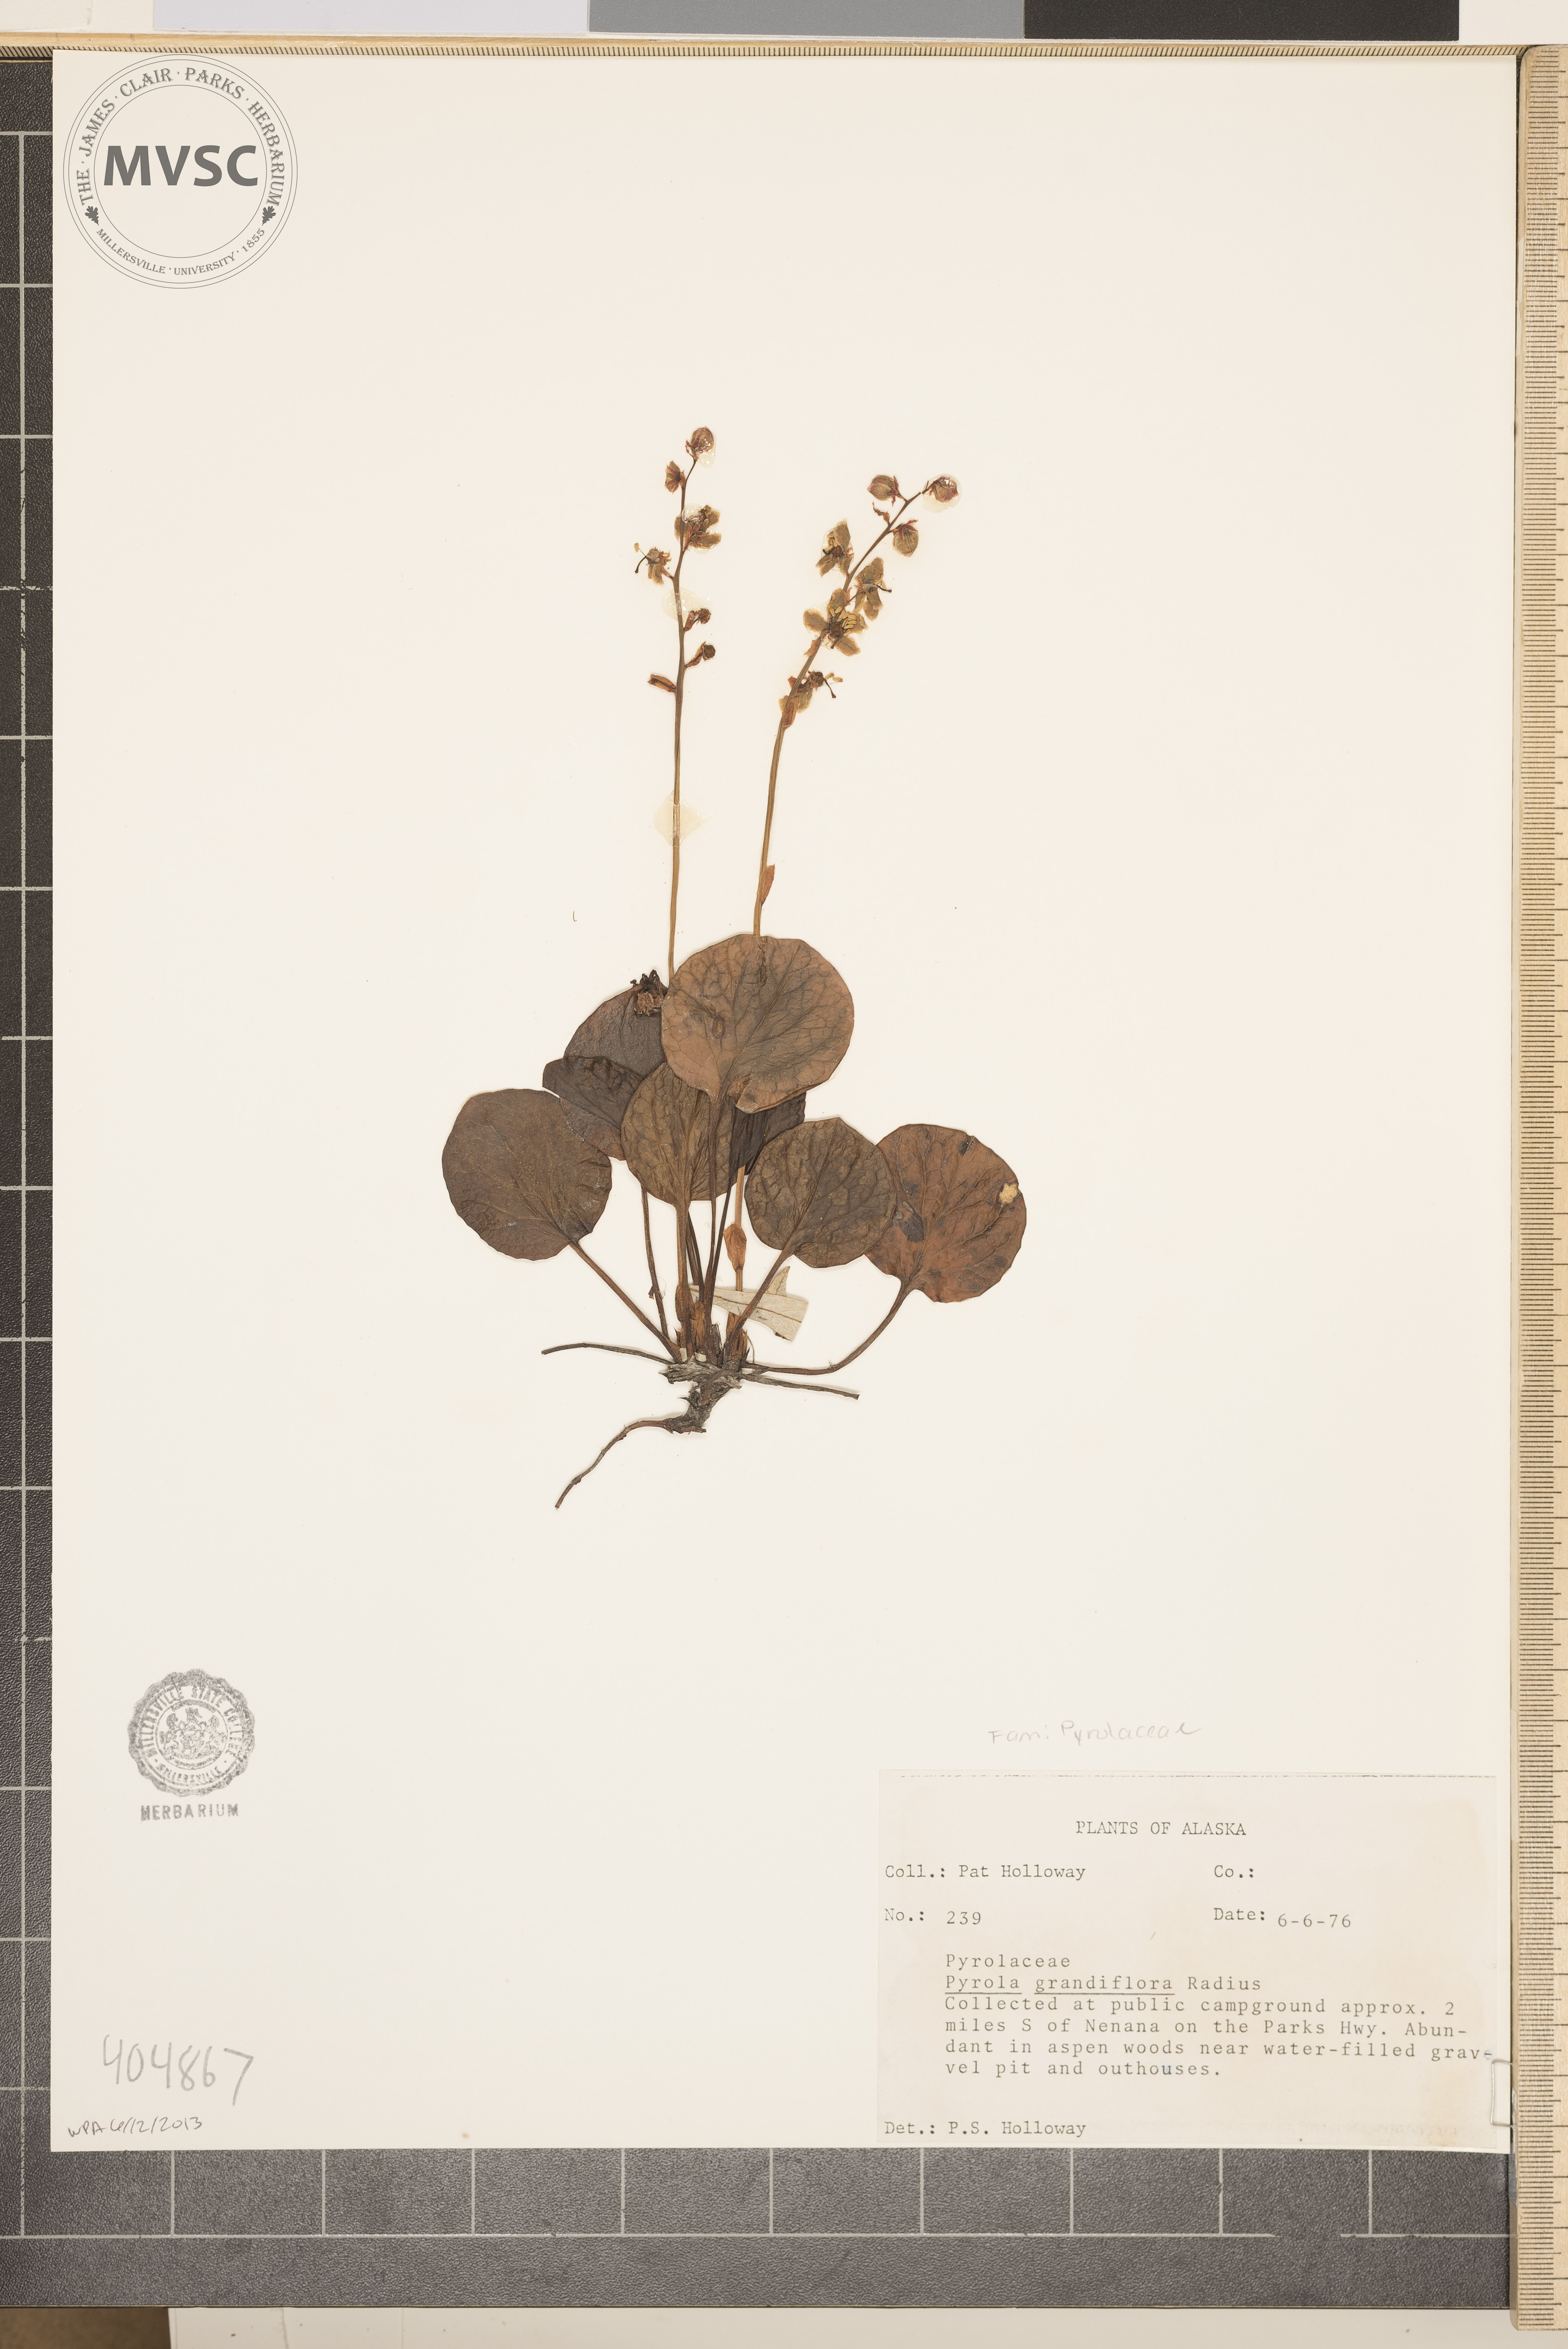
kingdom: Plantae
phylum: Tracheophyta
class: Magnoliopsida
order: Ericales
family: Ericaceae
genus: Pyrola
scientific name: Pyrola grandiflora
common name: Arctic pyrola
